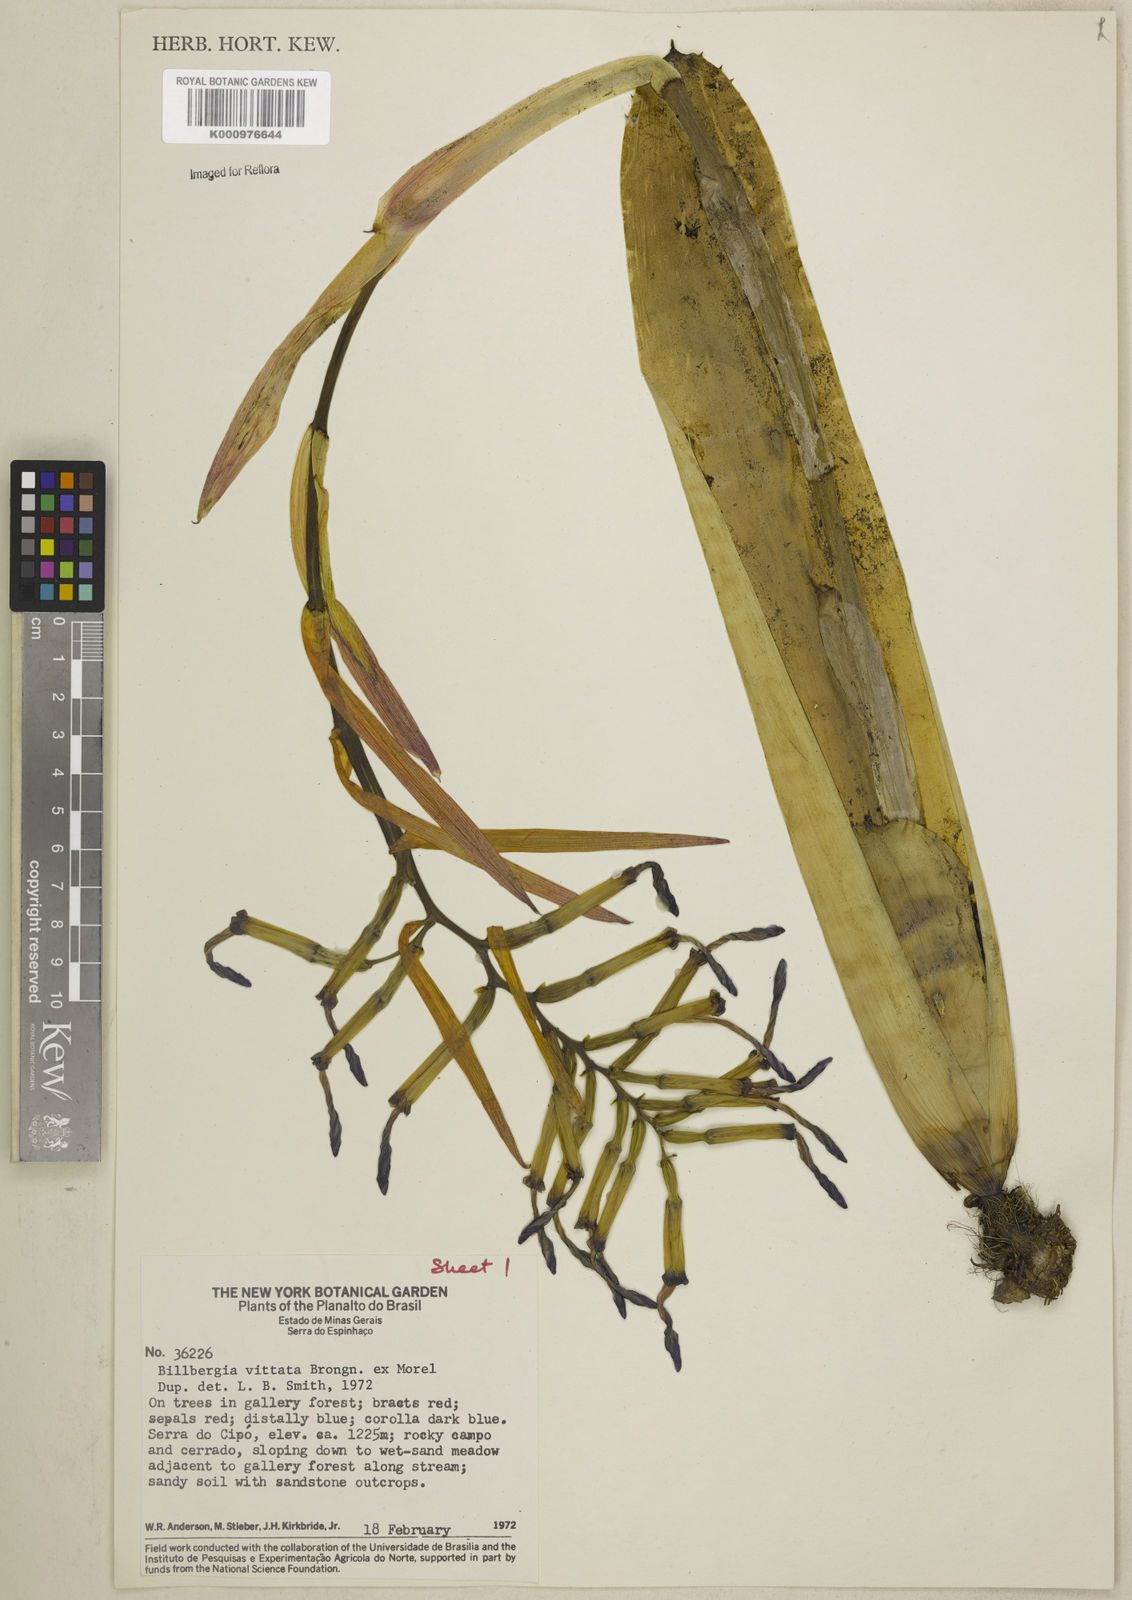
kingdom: Plantae
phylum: Tracheophyta
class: Liliopsida
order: Poales
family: Bromeliaceae
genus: Billbergia
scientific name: Billbergia vittata
